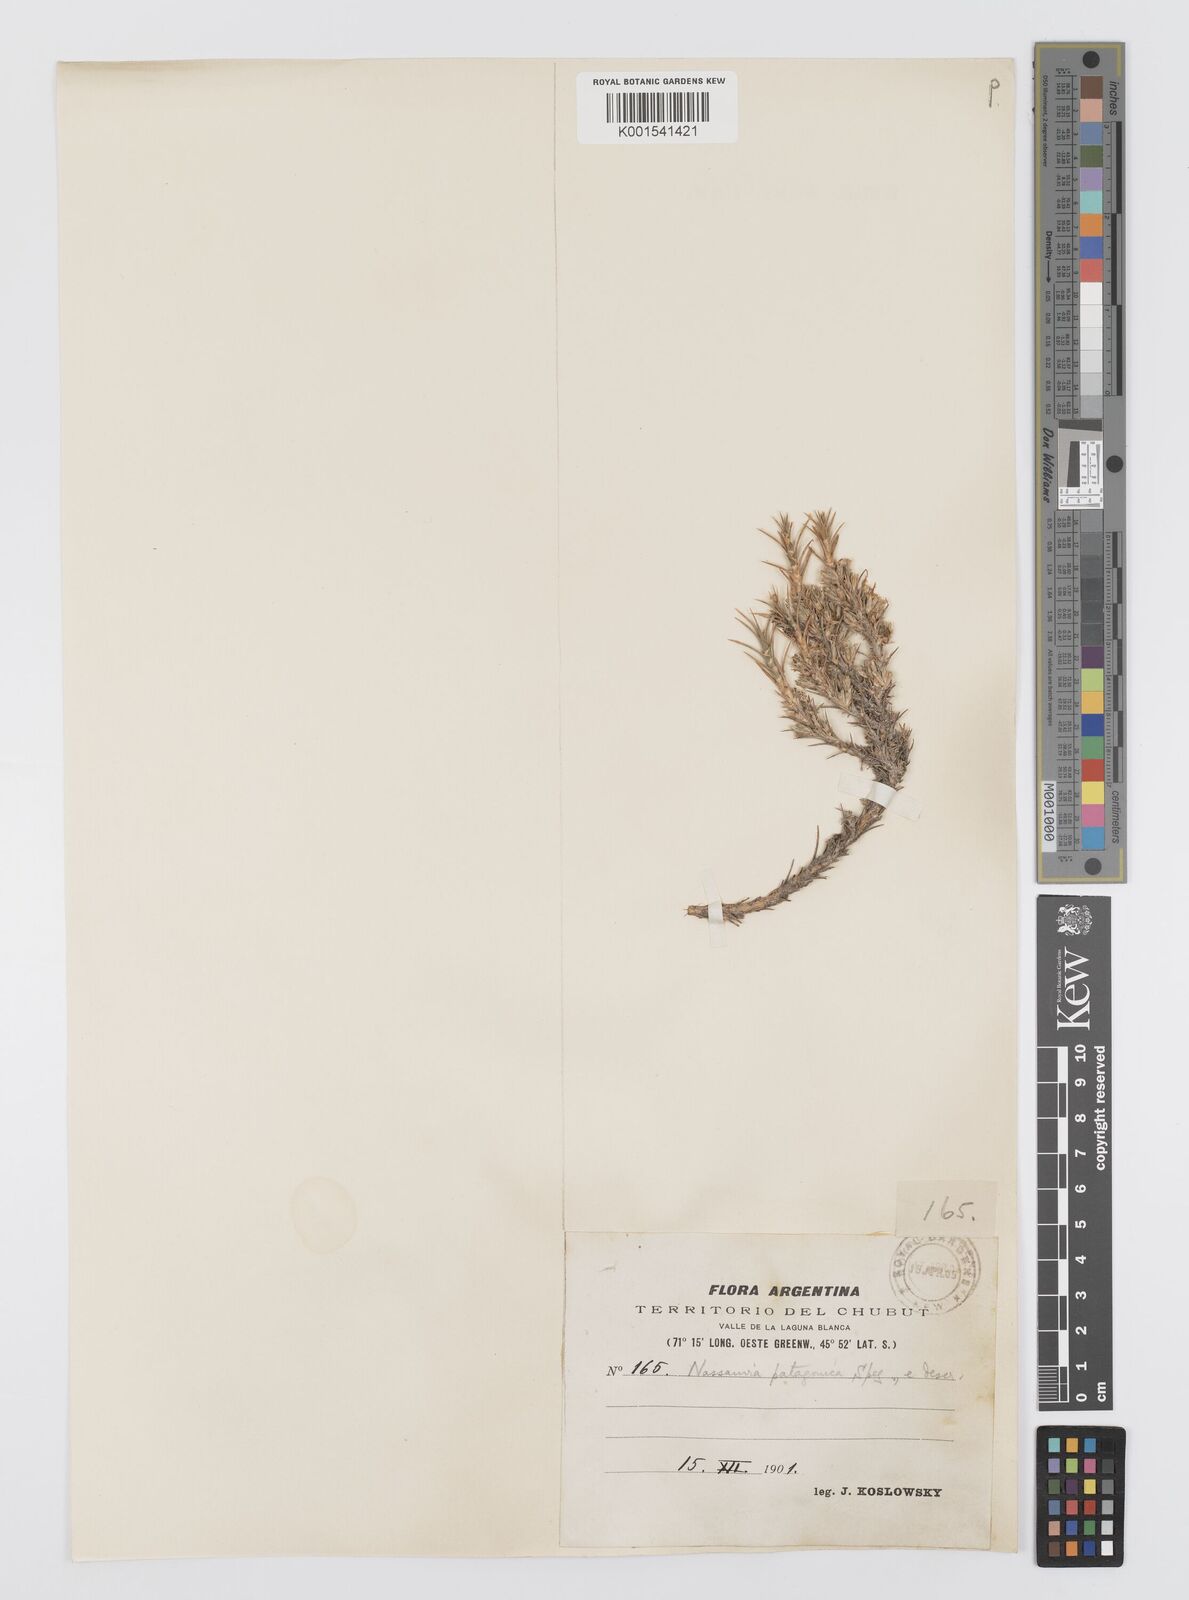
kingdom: Plantae
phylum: Tracheophyta
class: Magnoliopsida
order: Asterales
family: Asteraceae
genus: Nassauvia
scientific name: Nassauvia ulicina
